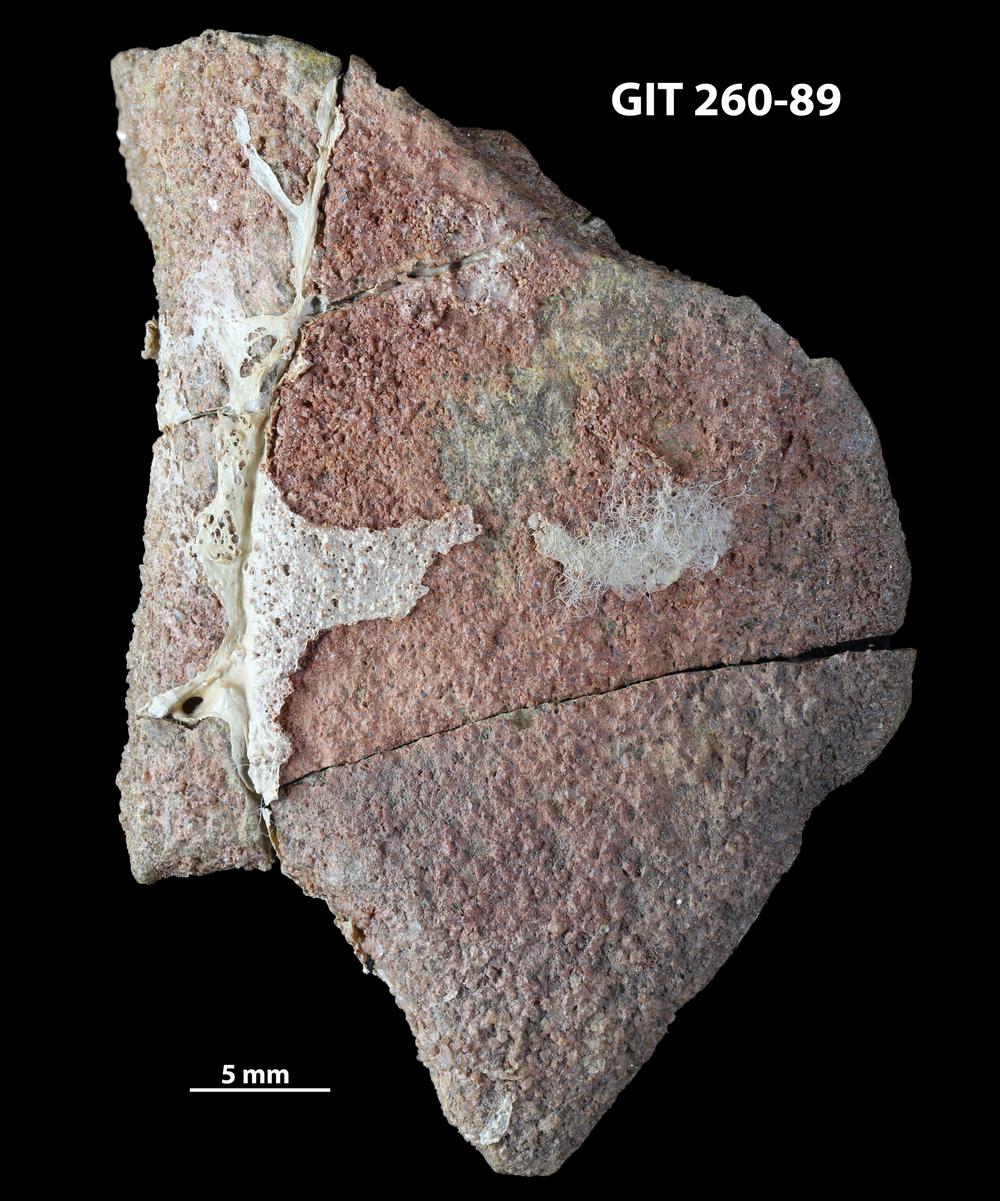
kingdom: Animalia
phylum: Chordata
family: Homostiidae
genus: Homostius
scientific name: Homostius
